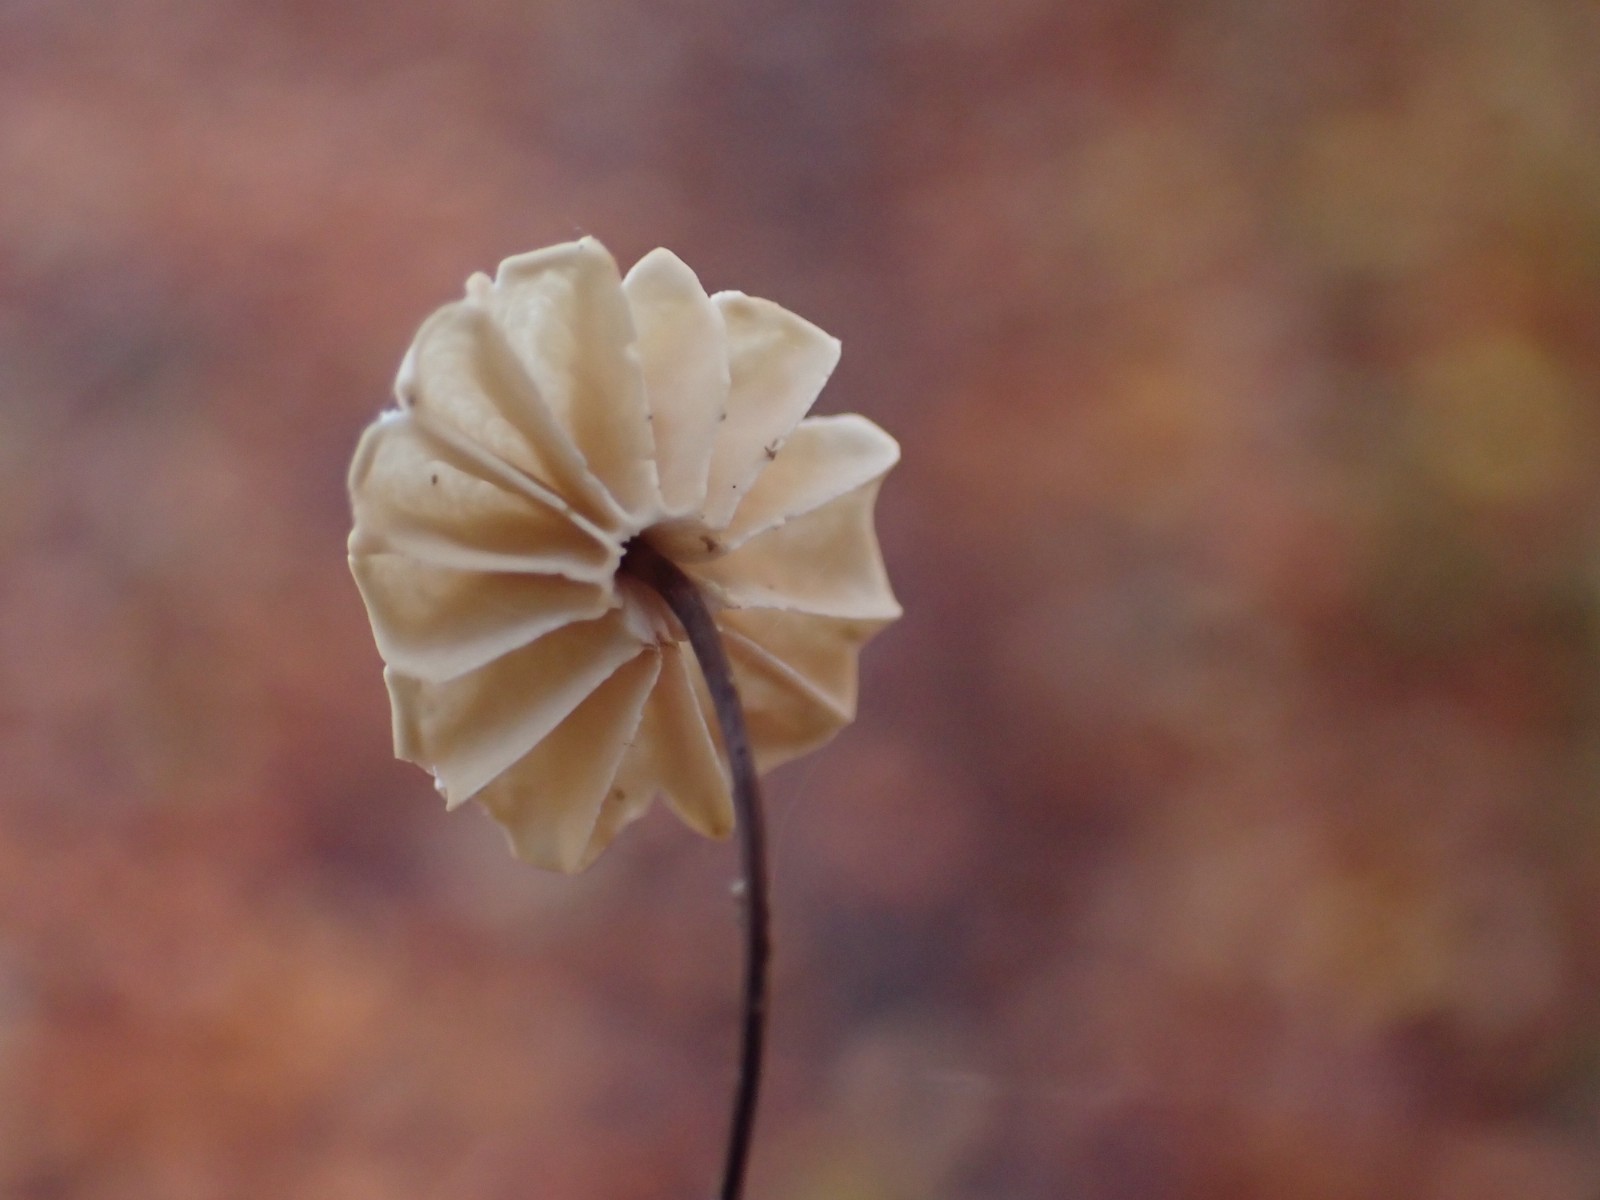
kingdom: Fungi
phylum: Basidiomycota
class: Agaricomycetes
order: Agaricales
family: Marasmiaceae
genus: Marasmius
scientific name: Marasmius rotula
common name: hjul-bruskhat
